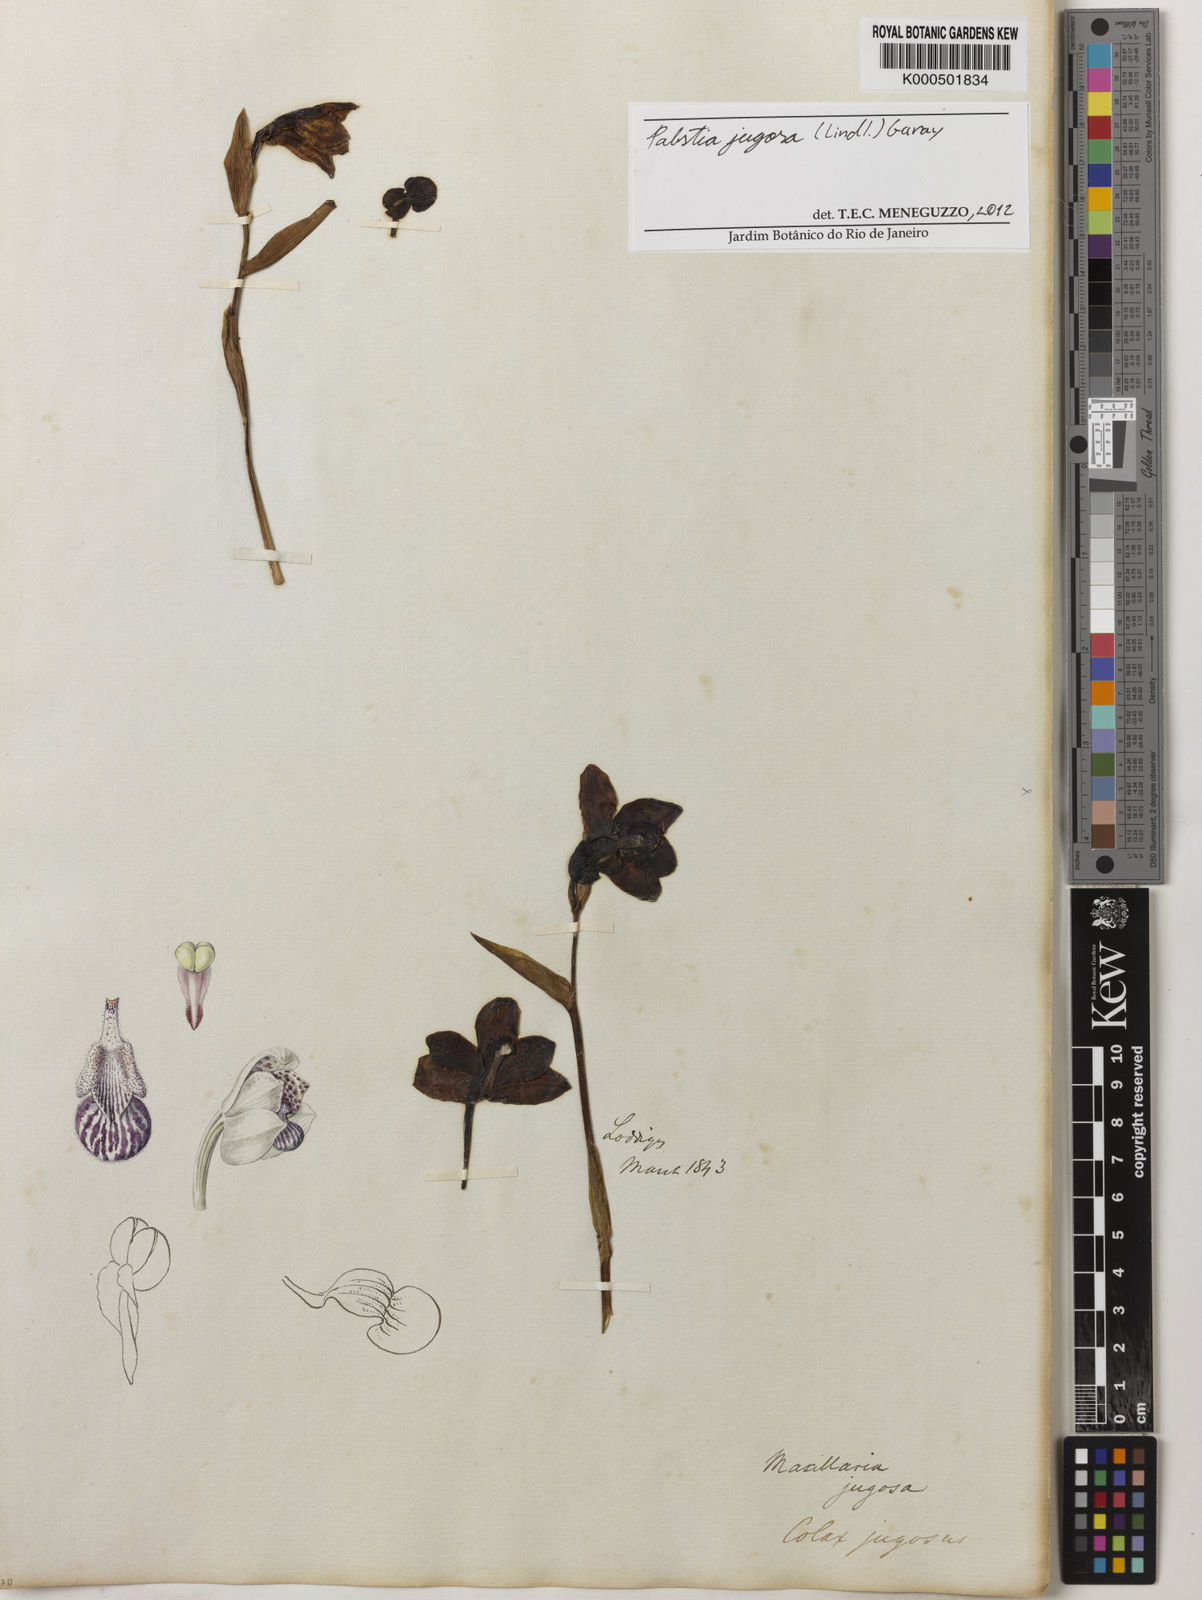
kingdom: Plantae
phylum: Tracheophyta
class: Liliopsida
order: Asparagales
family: Orchidaceae
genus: Pabstia
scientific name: Pabstia jugosa
